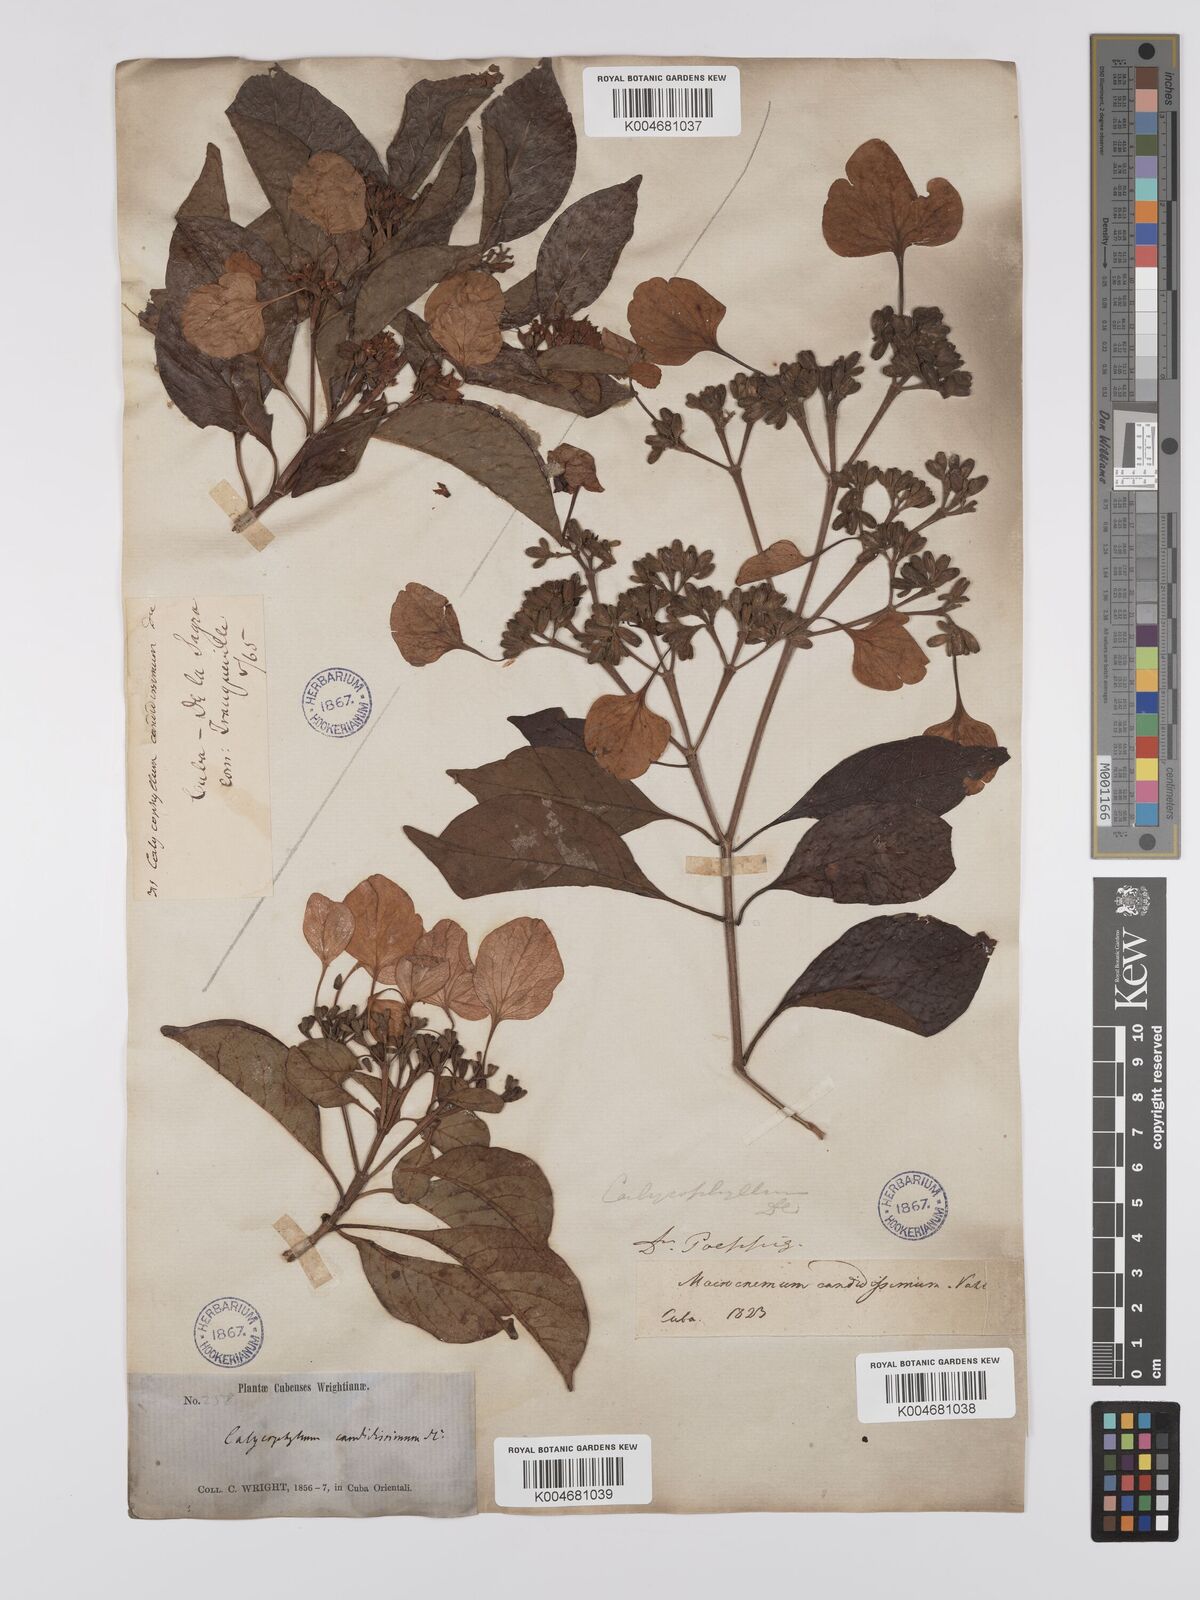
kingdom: Plantae
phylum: Tracheophyta
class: Magnoliopsida
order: Gentianales
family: Rubiaceae
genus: Calycophyllum
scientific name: Calycophyllum candidissimum
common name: Dagame
